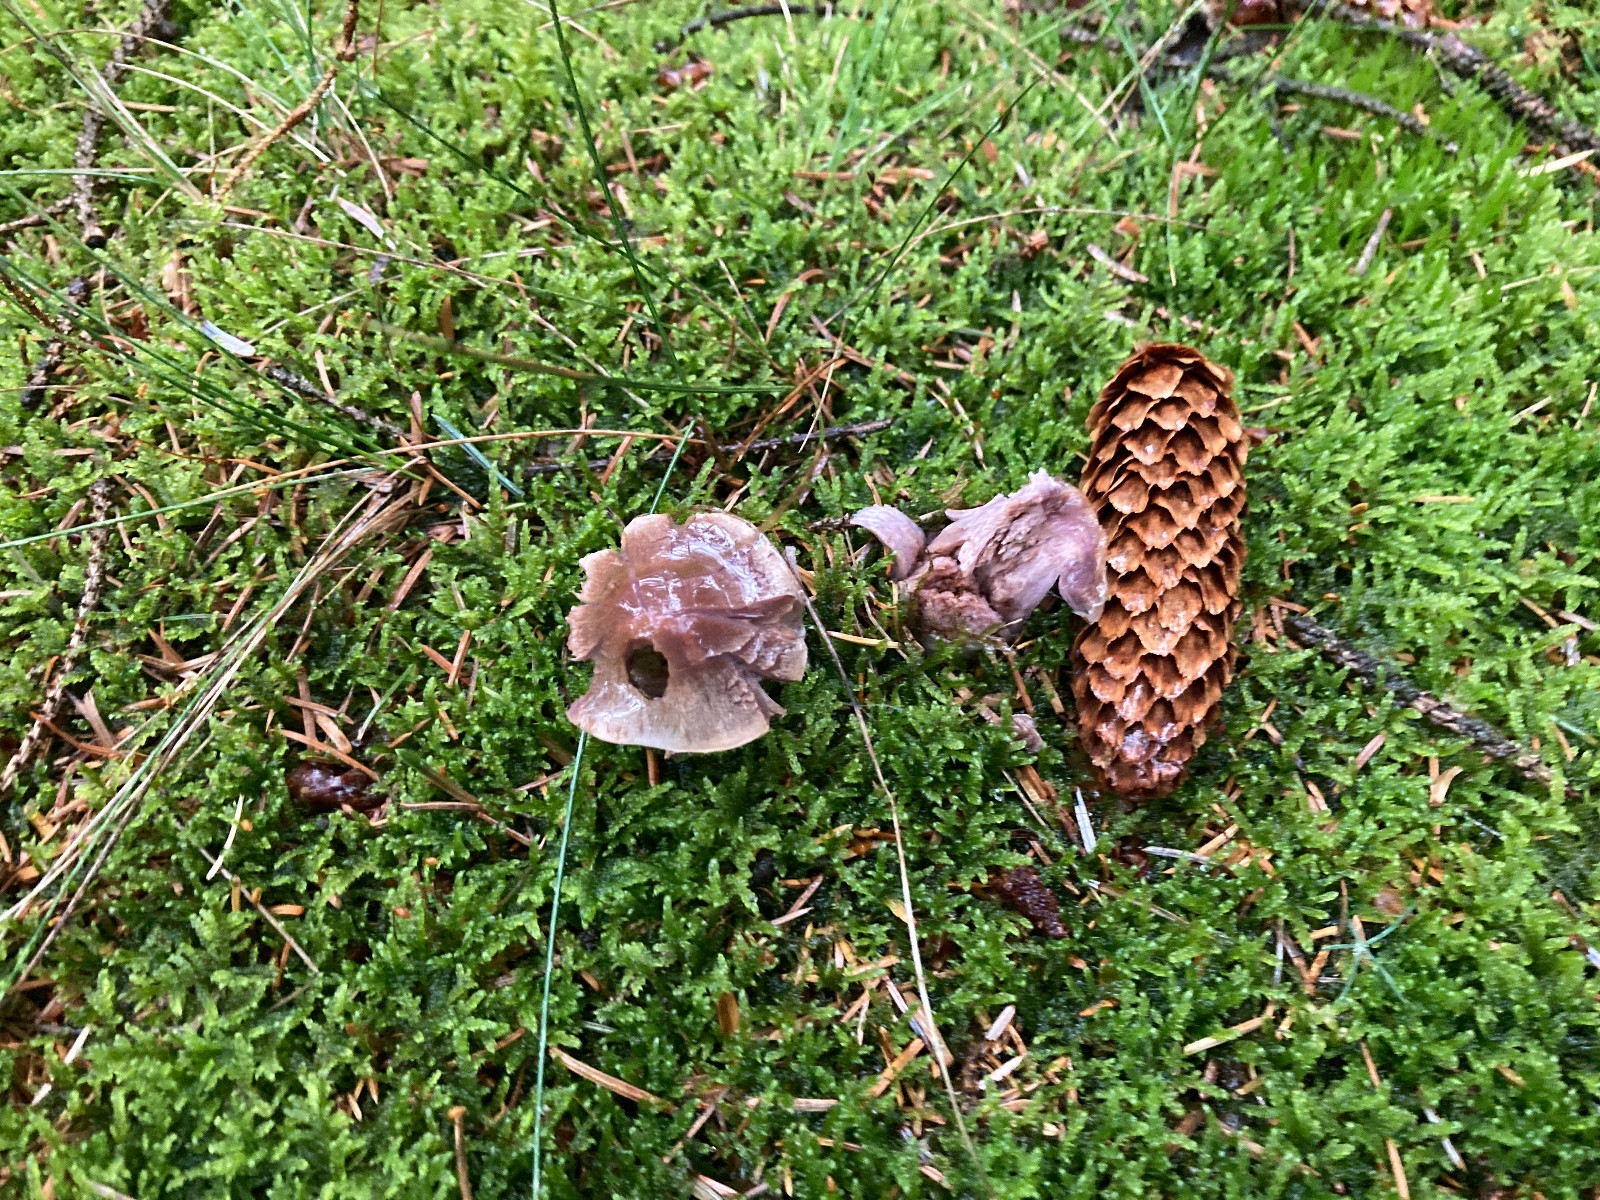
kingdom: Fungi
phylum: Basidiomycota
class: Agaricomycetes
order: Agaricales
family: Cortinariaceae
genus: Cortinarius
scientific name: Cortinarius
